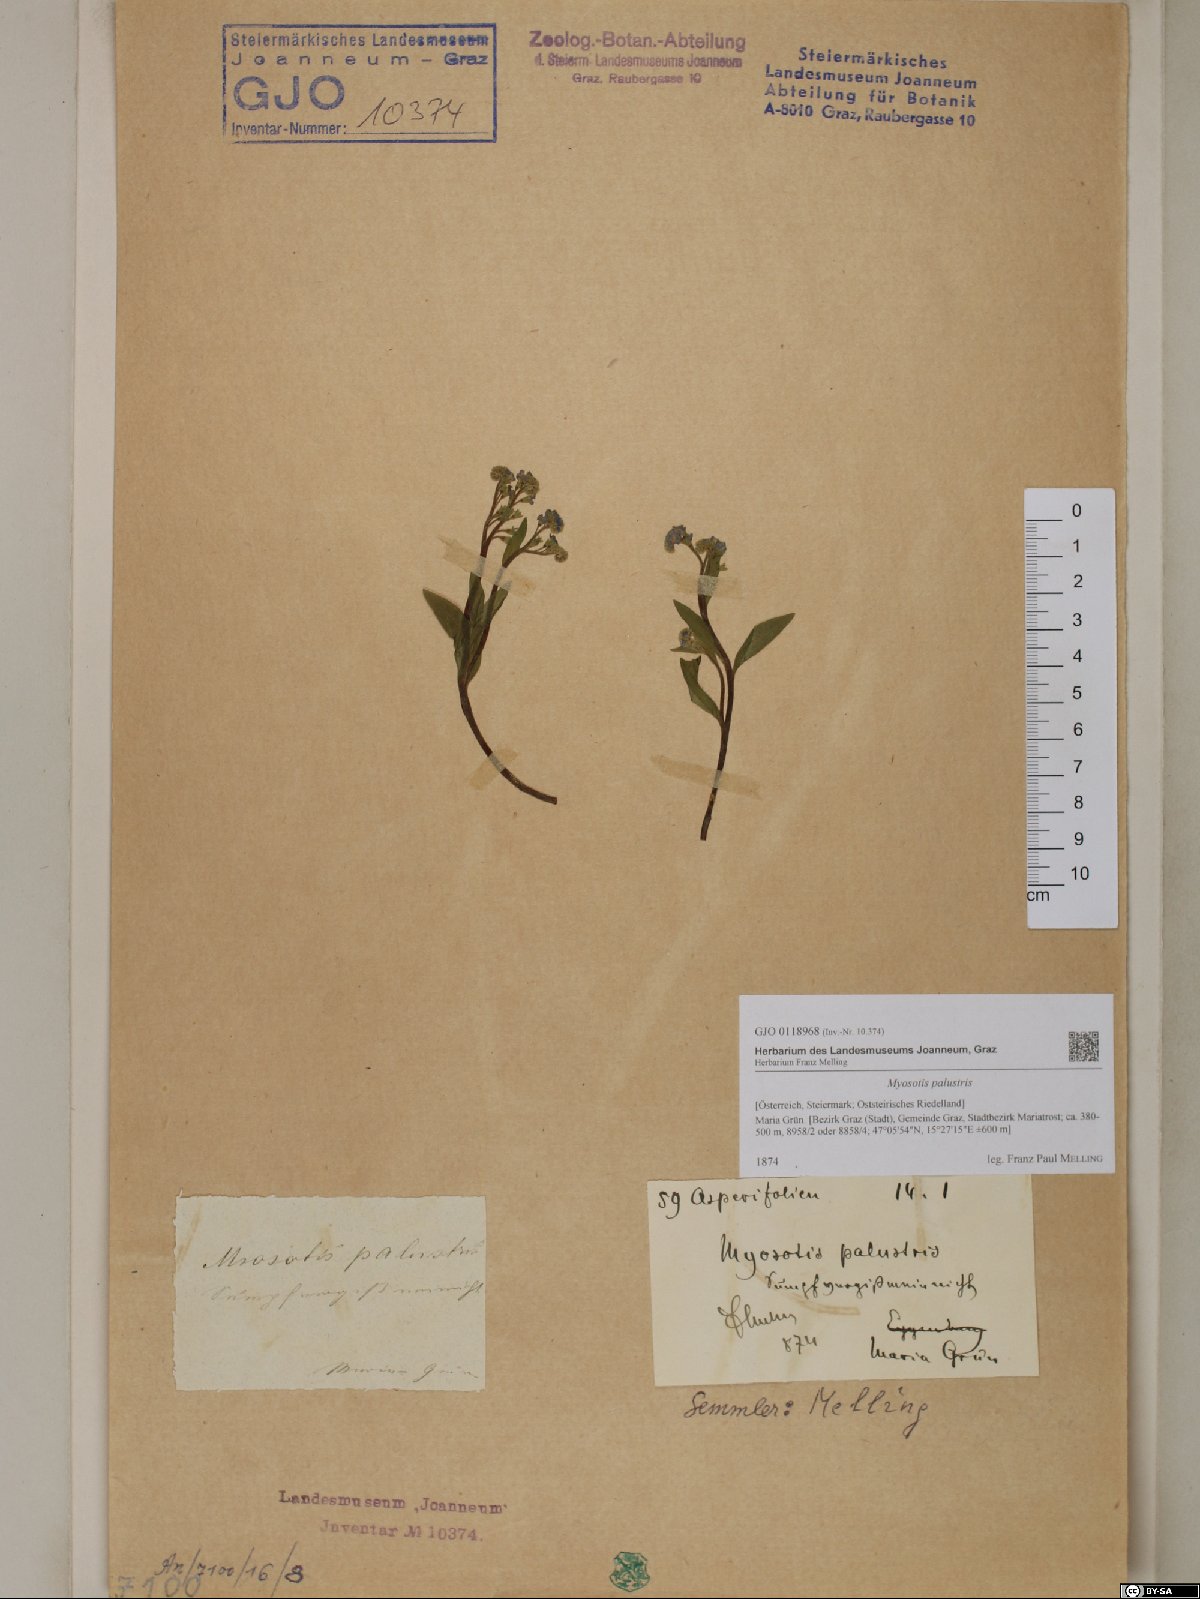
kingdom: Plantae
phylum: Tracheophyta
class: Magnoliopsida
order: Boraginales
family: Boraginaceae
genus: Myosotis
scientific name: Myosotis scorpioides
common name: Water forget-me-not
